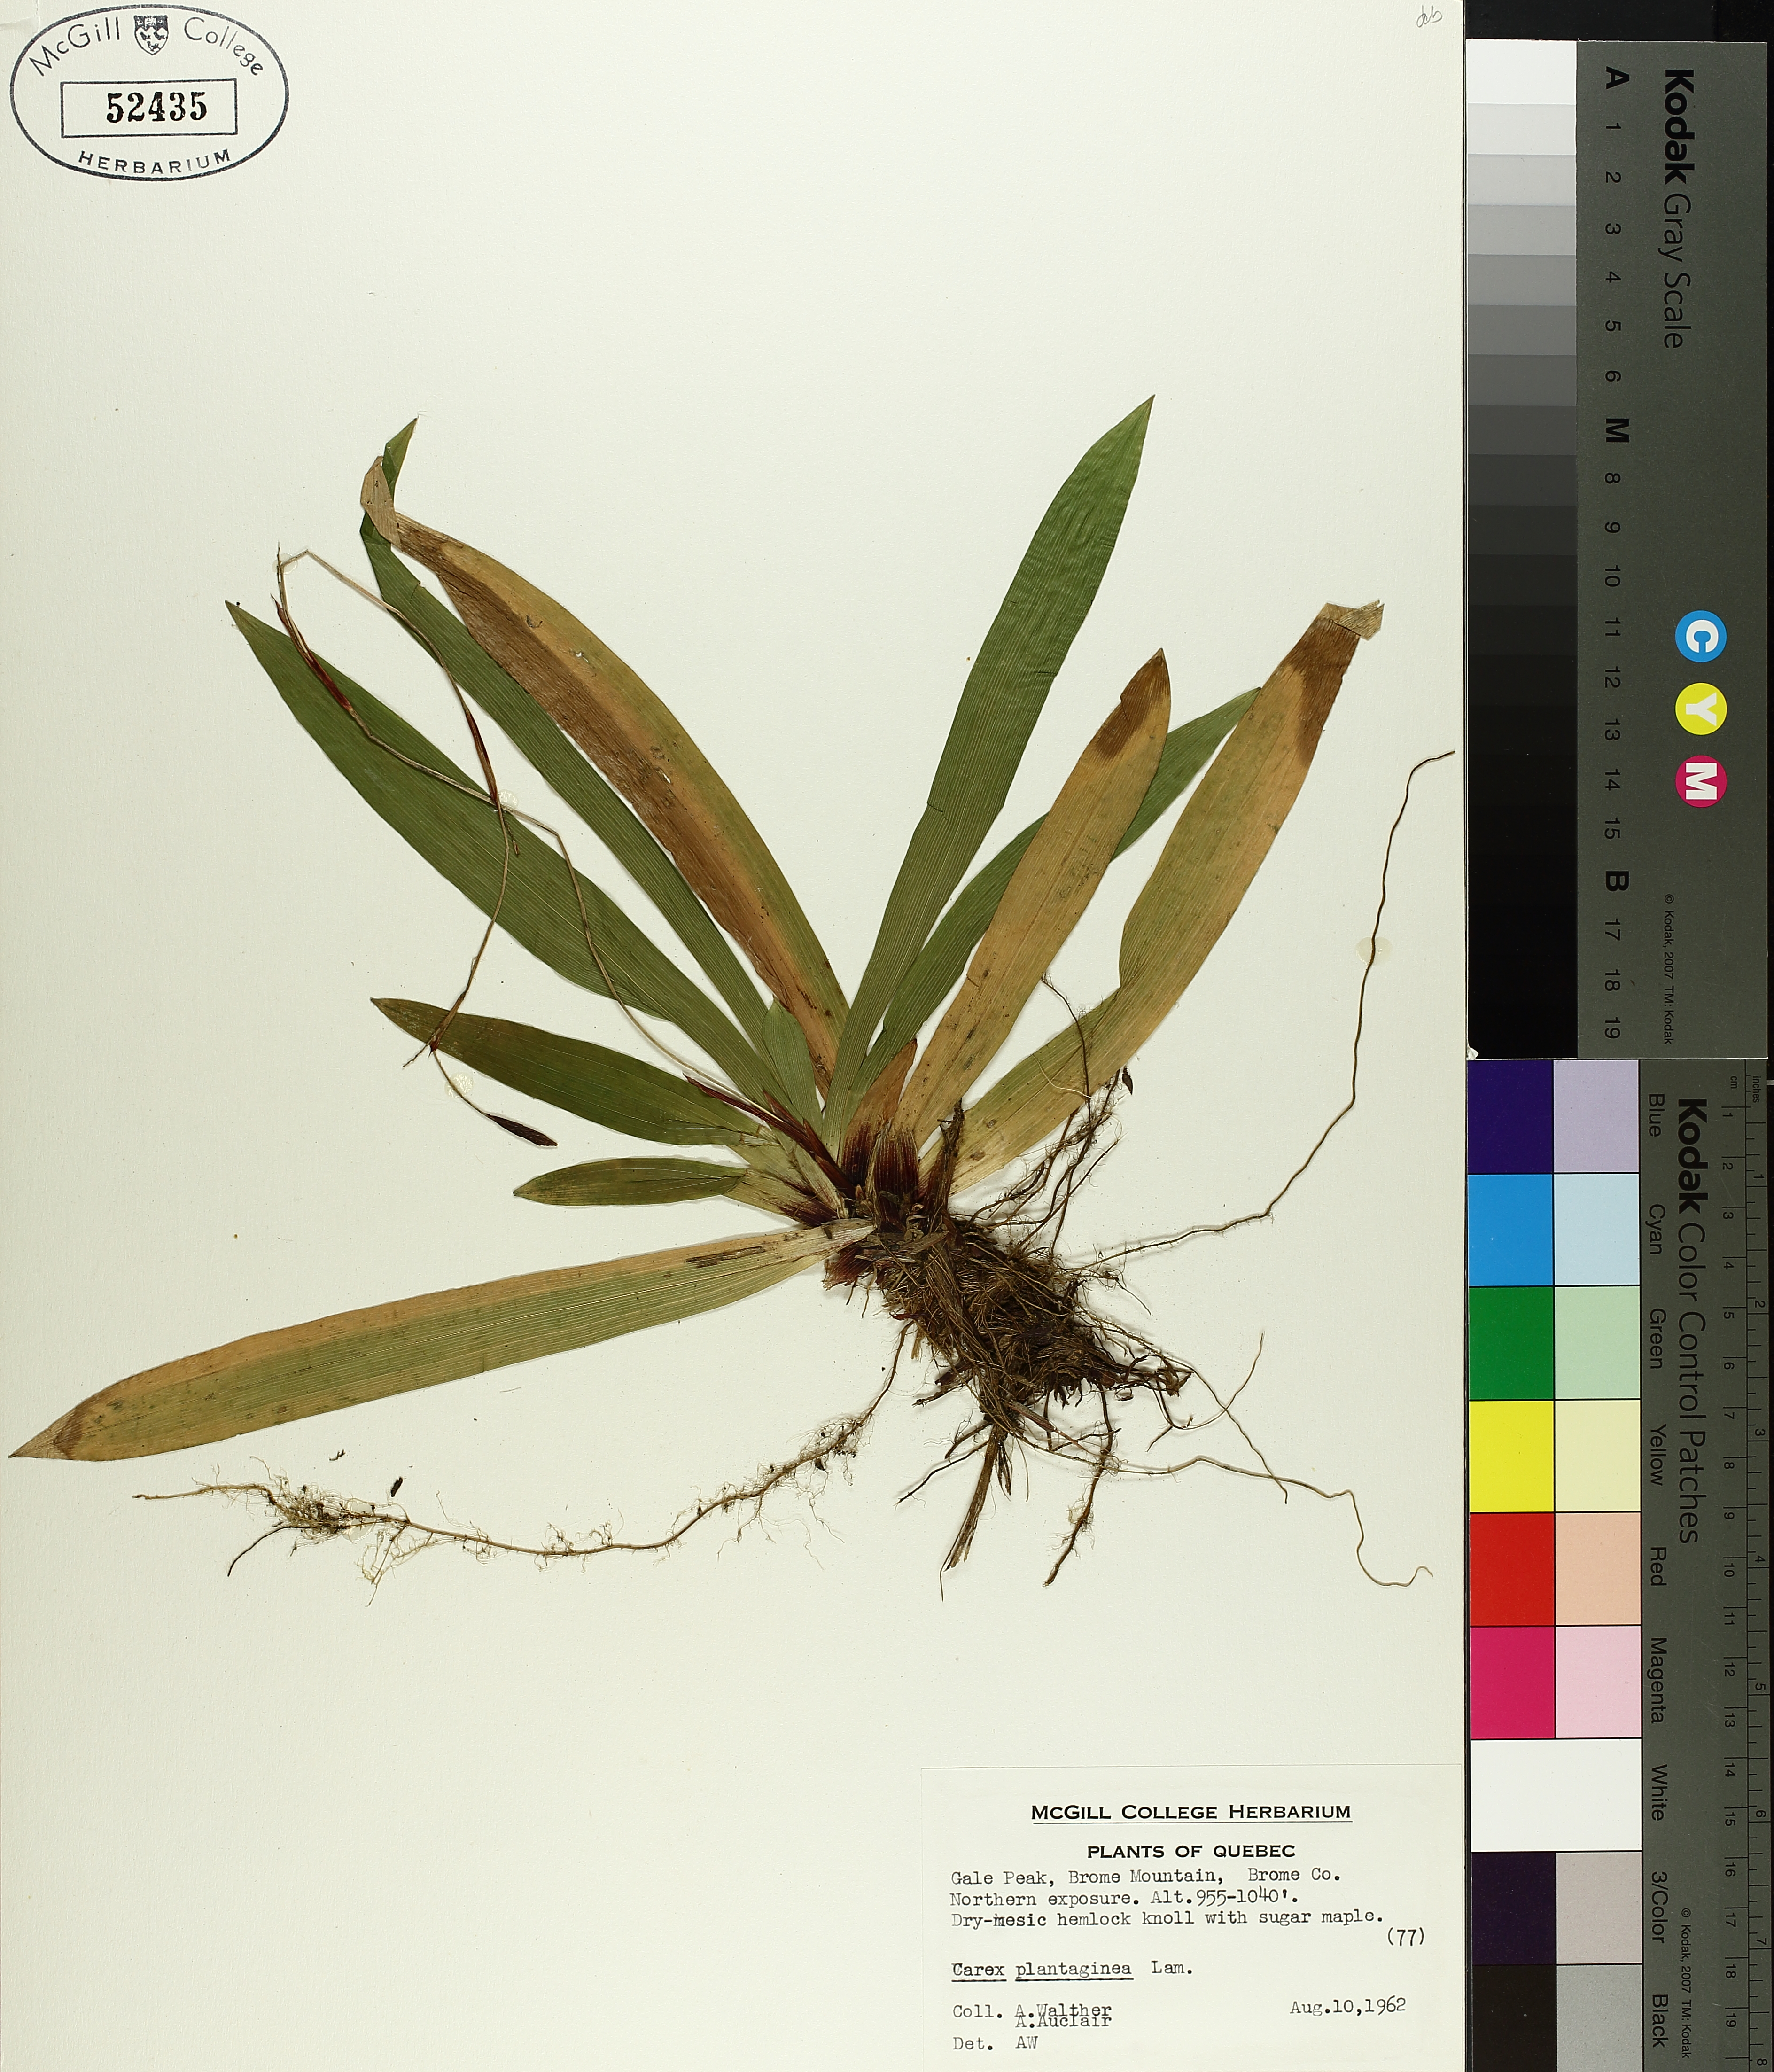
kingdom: Plantae
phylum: Tracheophyta
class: Liliopsida
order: Poales
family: Cyperaceae
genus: Carex
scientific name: Carex plantaginea
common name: Plantain-leaved sedge
